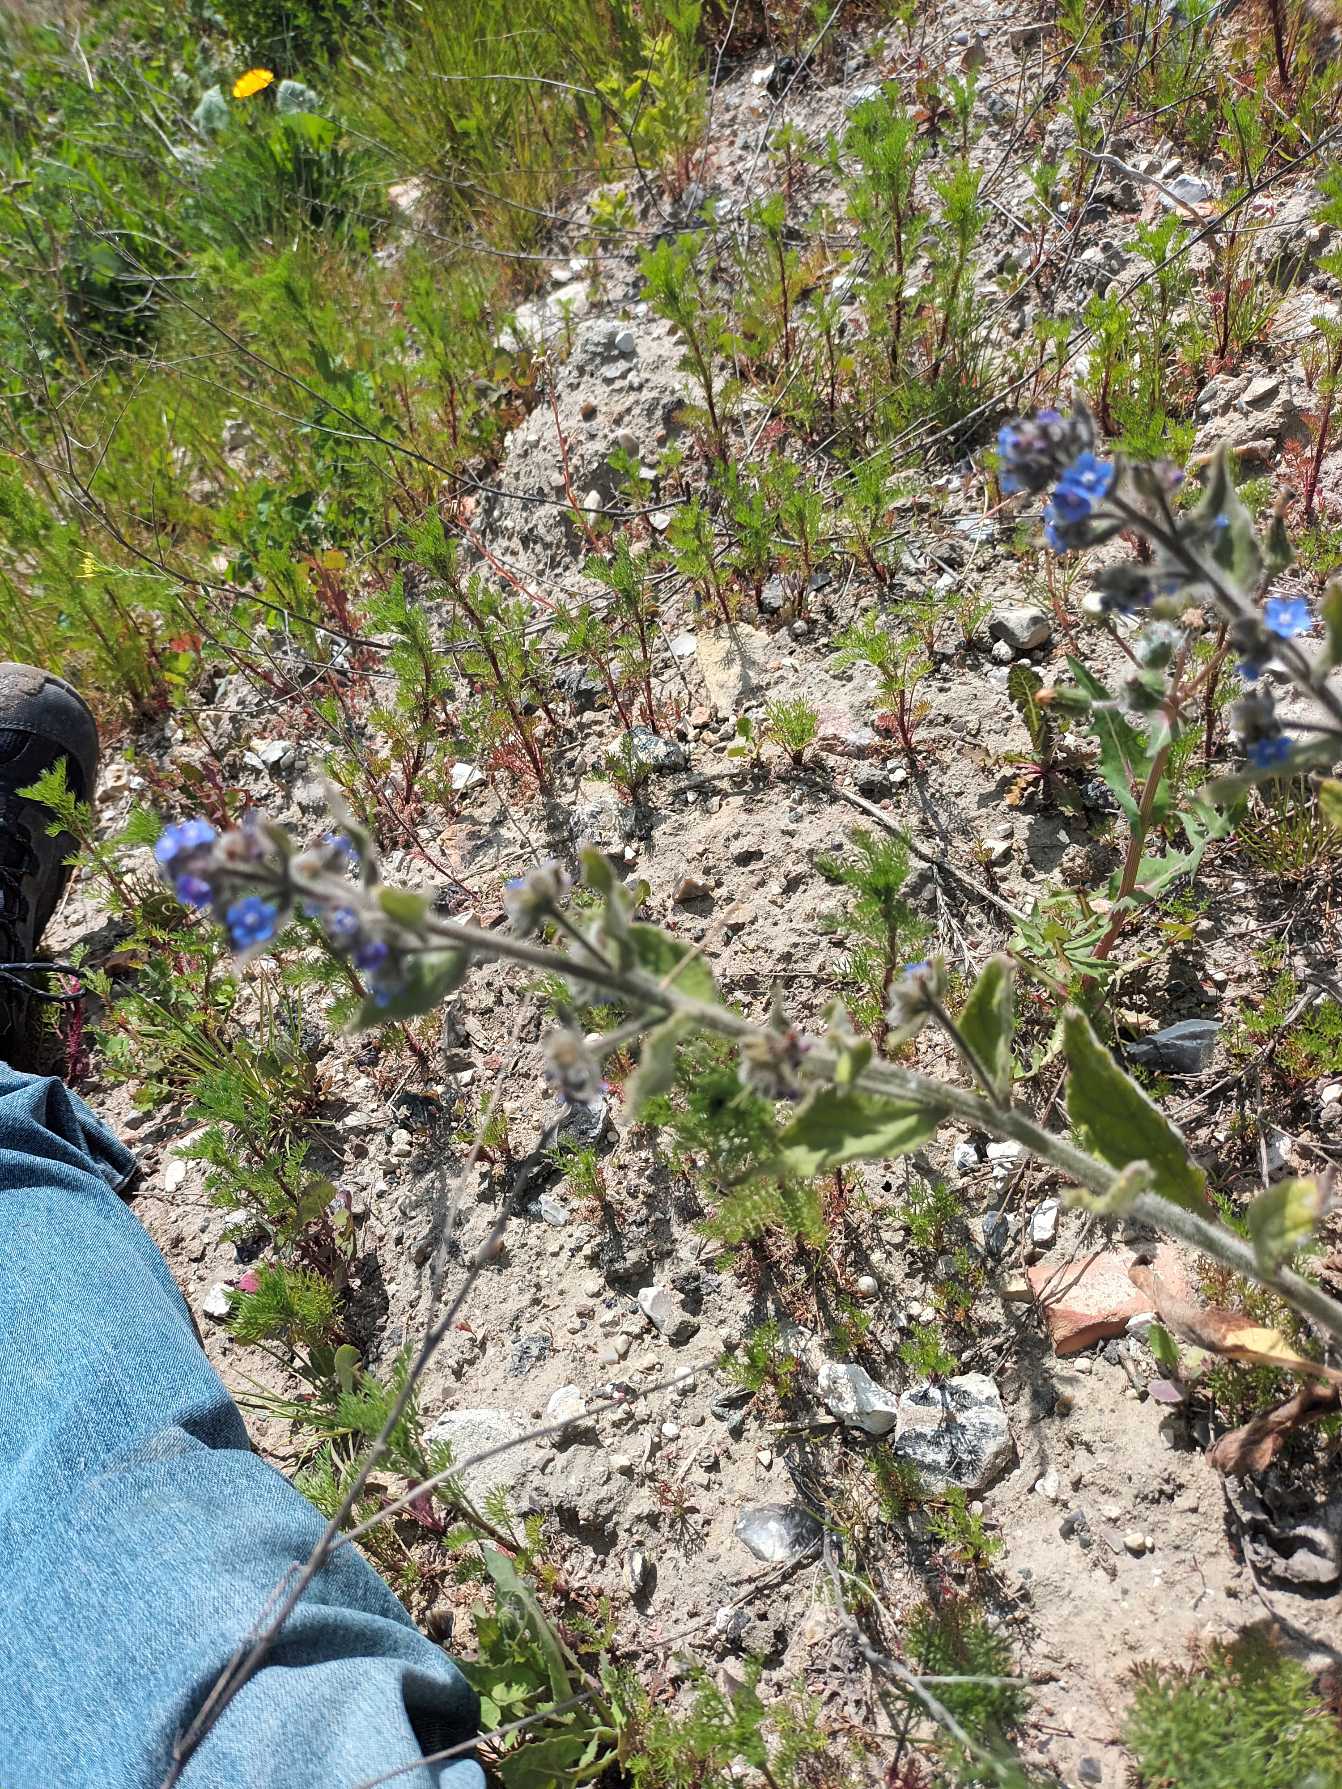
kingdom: Plantae
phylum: Tracheophyta
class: Magnoliopsida
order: Boraginales
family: Boraginaceae
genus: Pentaglottis
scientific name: Pentaglottis sempervirens
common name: Femtunge
